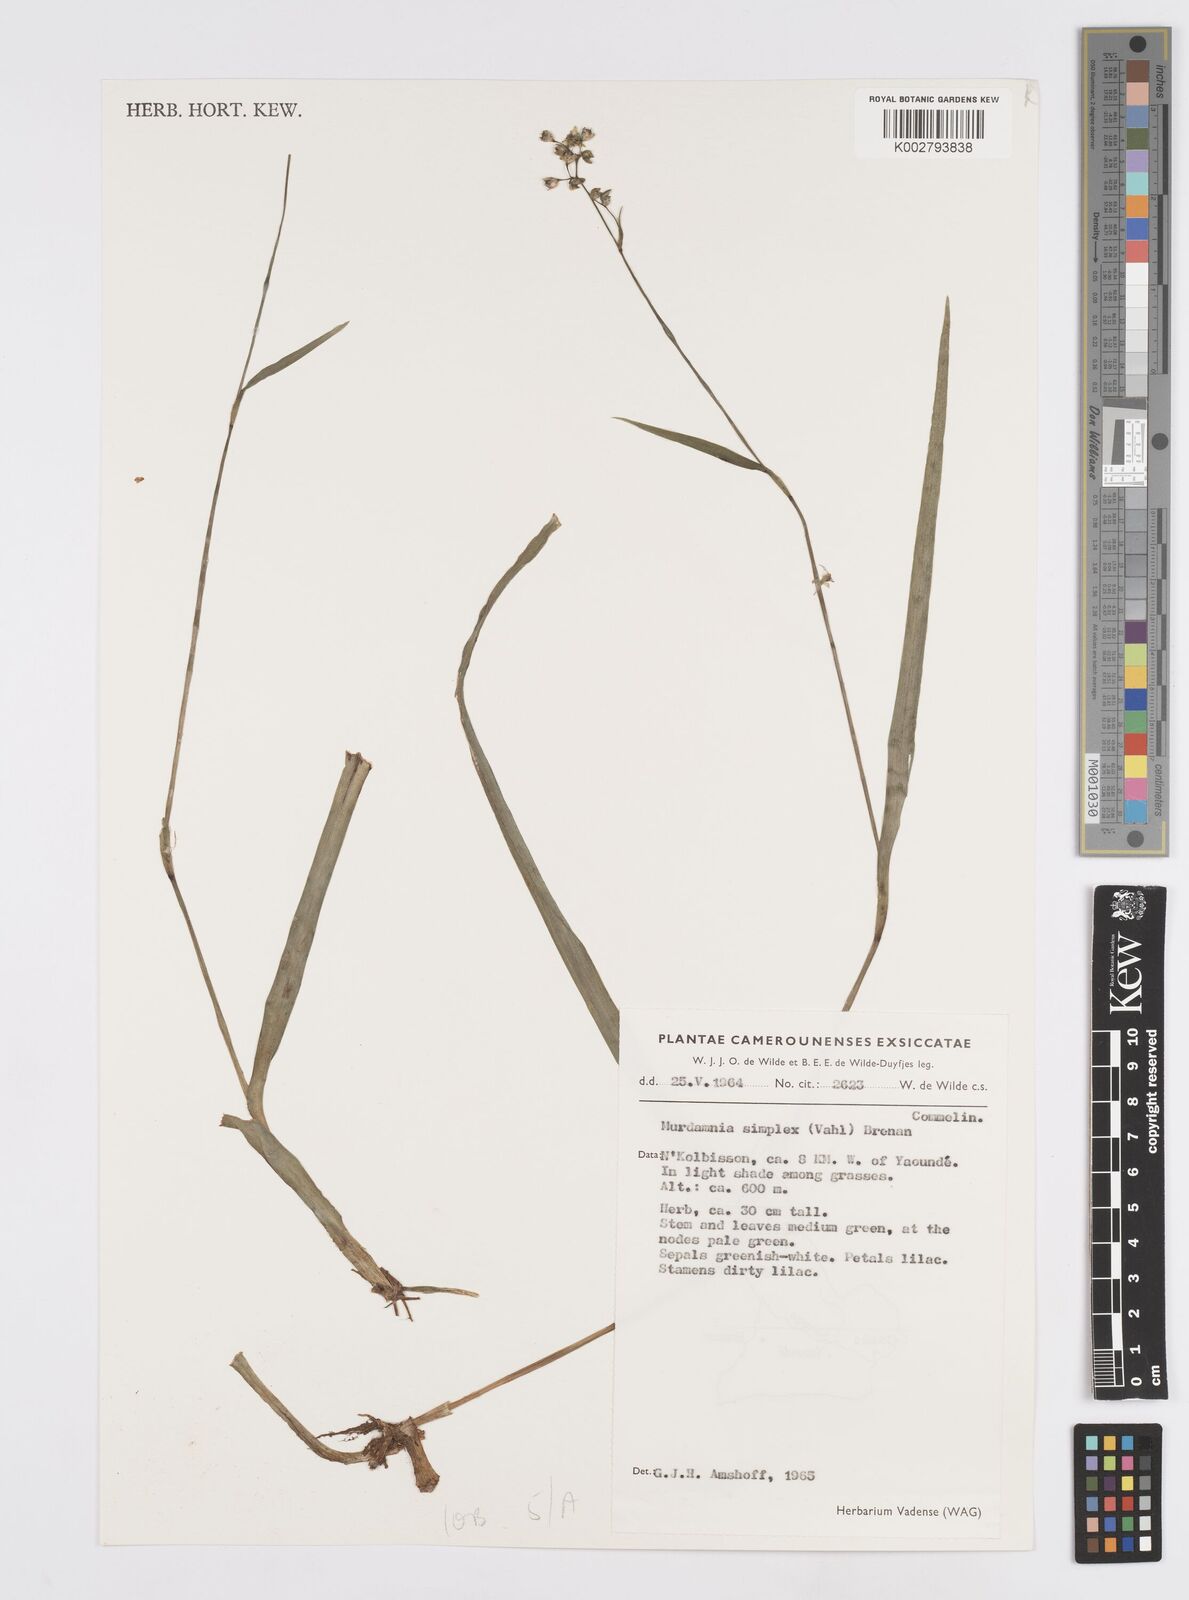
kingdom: Plantae
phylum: Tracheophyta
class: Liliopsida
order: Commelinales
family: Commelinaceae
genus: Murdannia
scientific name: Murdannia simplex
